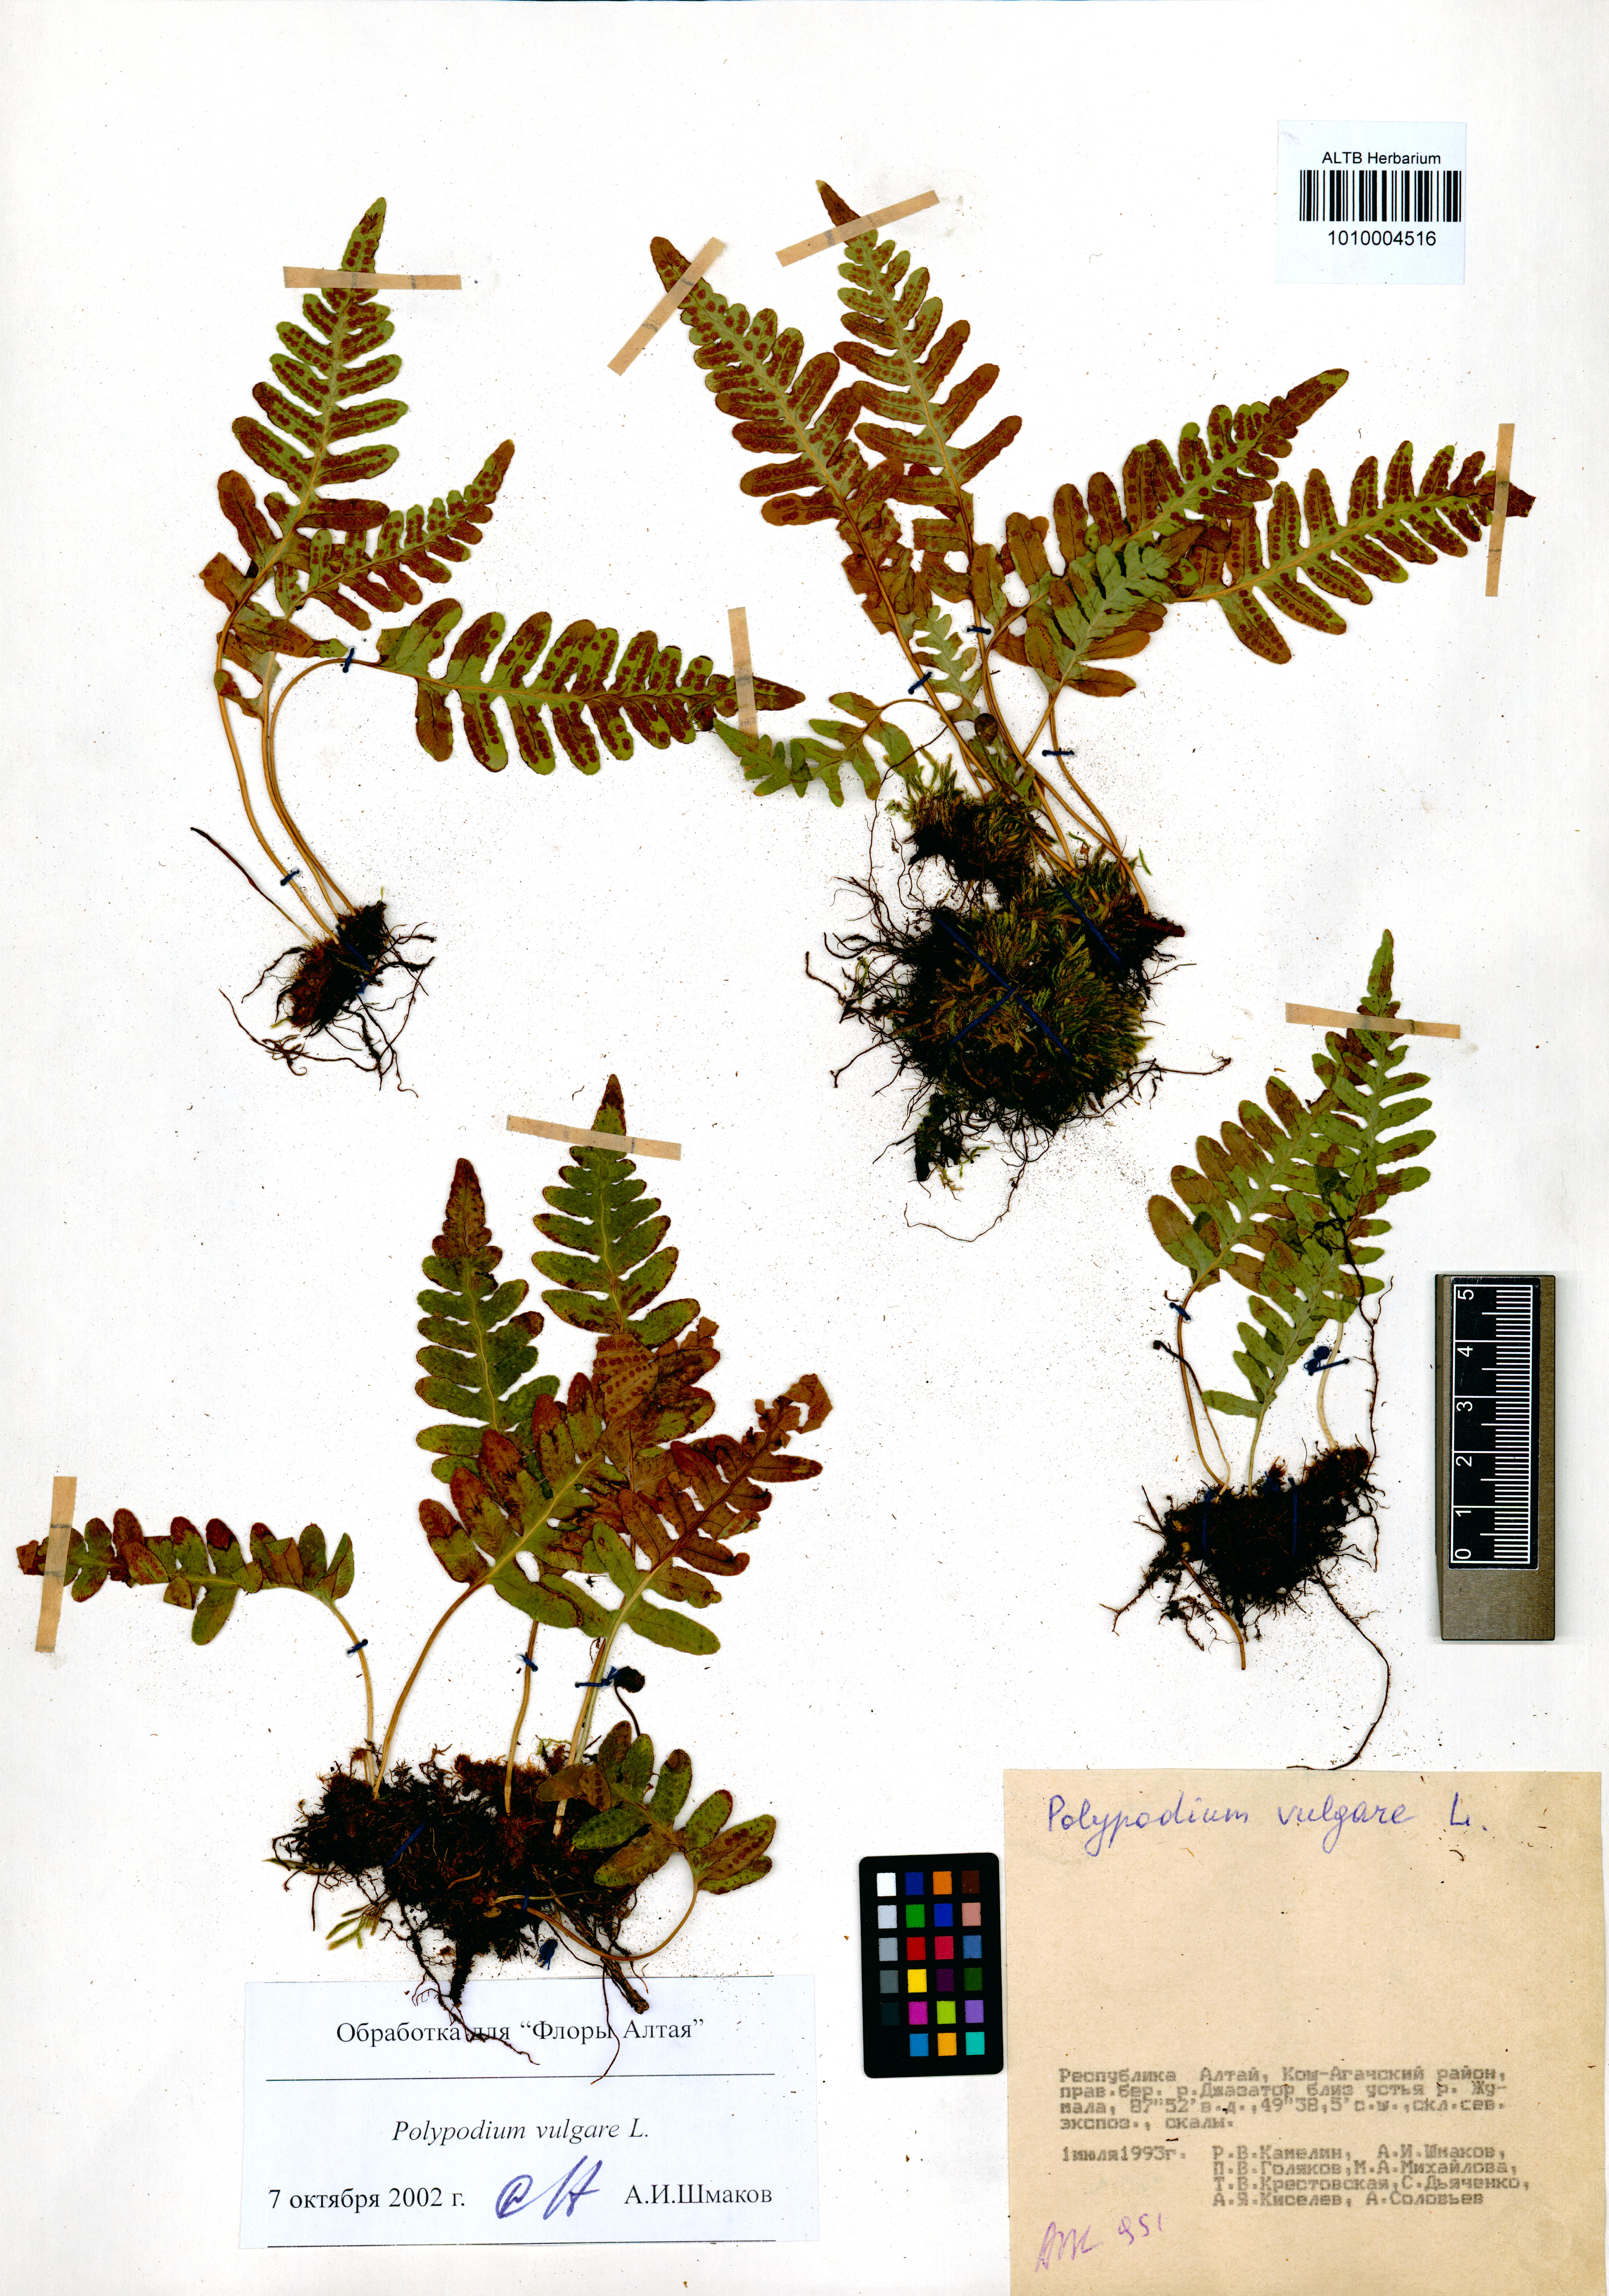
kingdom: Plantae
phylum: Tracheophyta
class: Polypodiopsida
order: Polypodiales
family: Polypodiaceae
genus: Polypodium
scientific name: Polypodium vulgare
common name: Common polypody
